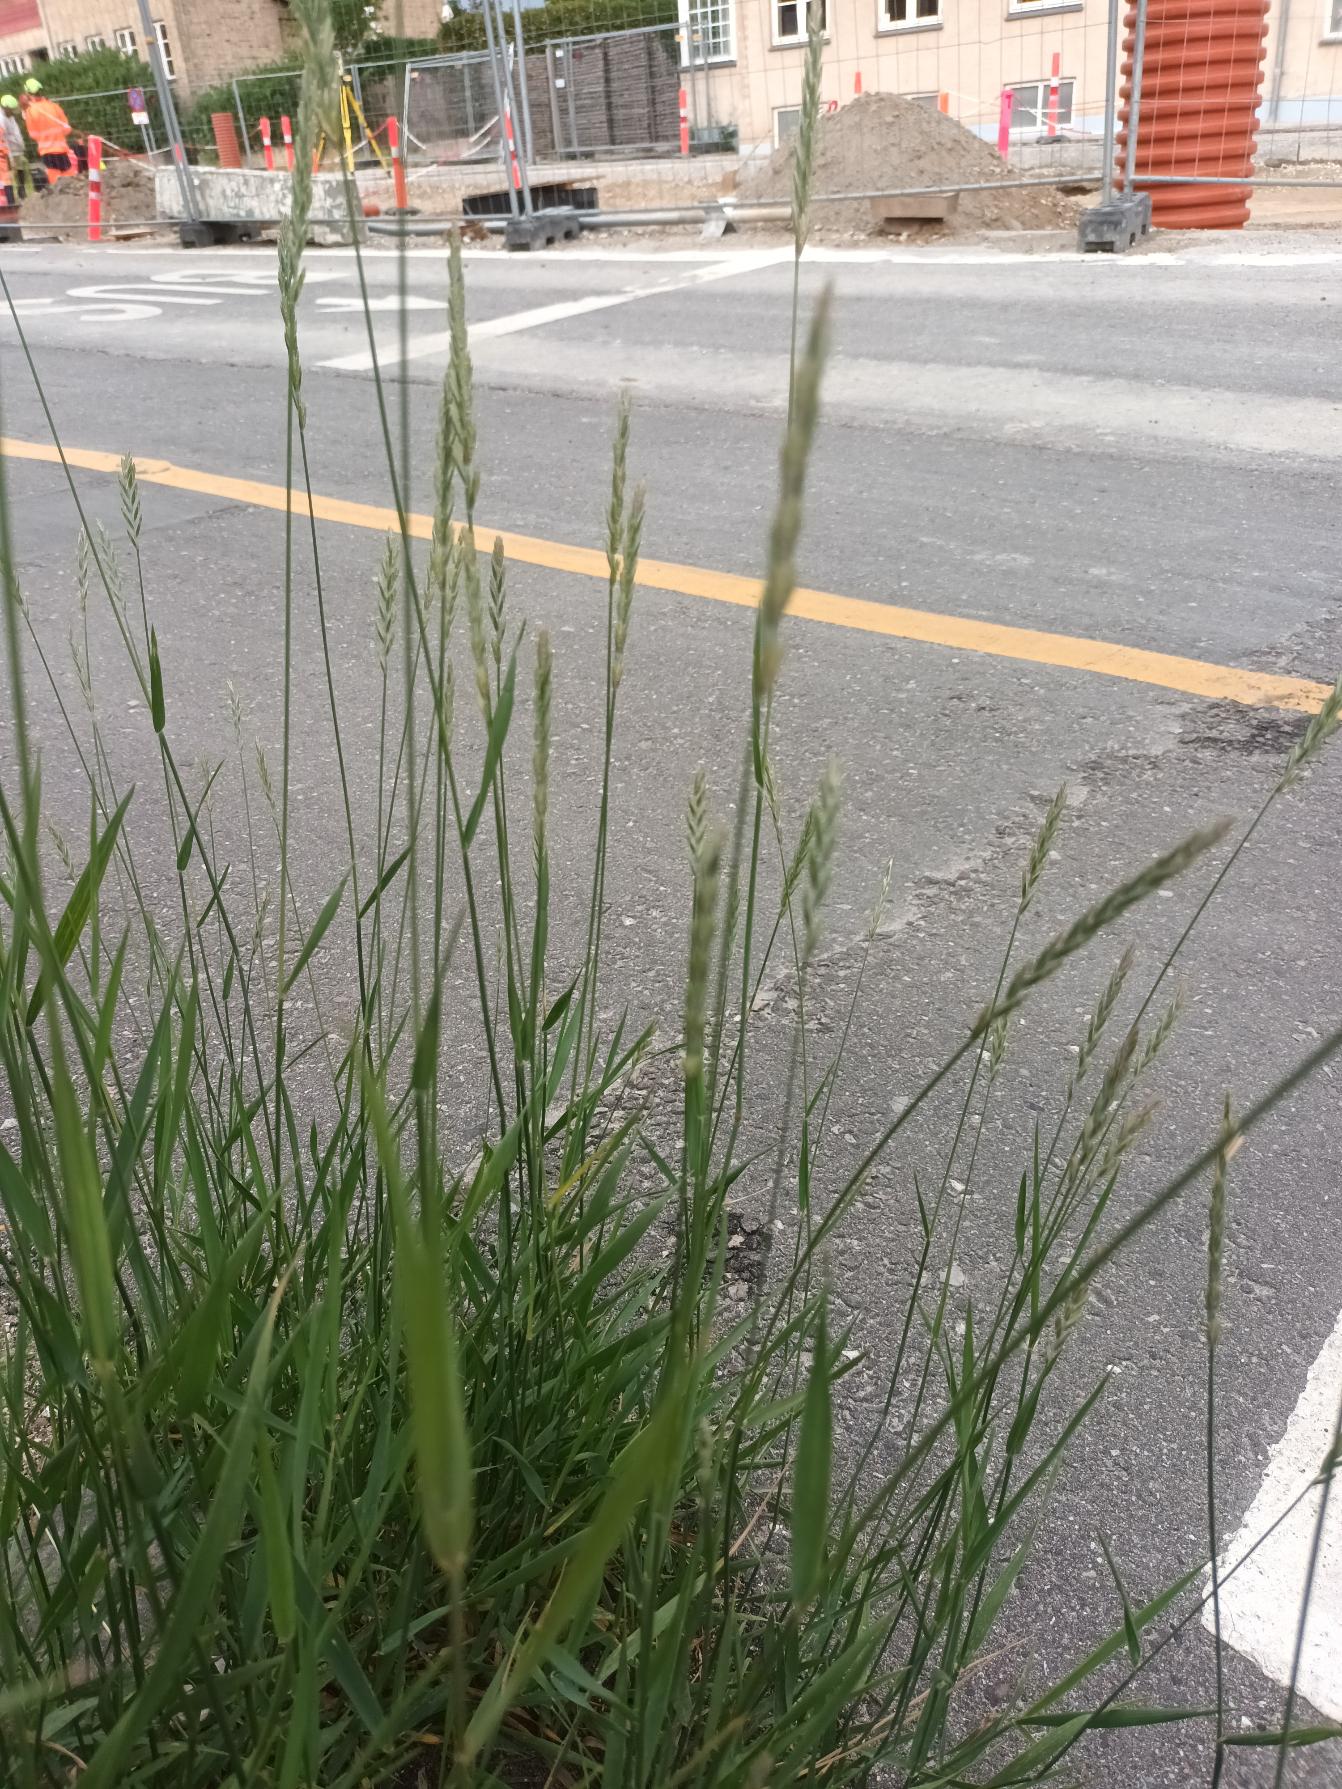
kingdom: Plantae
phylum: Tracheophyta
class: Liliopsida
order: Poales
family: Poaceae
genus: Elymus
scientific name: Elymus repens
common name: Almindelig kvik
